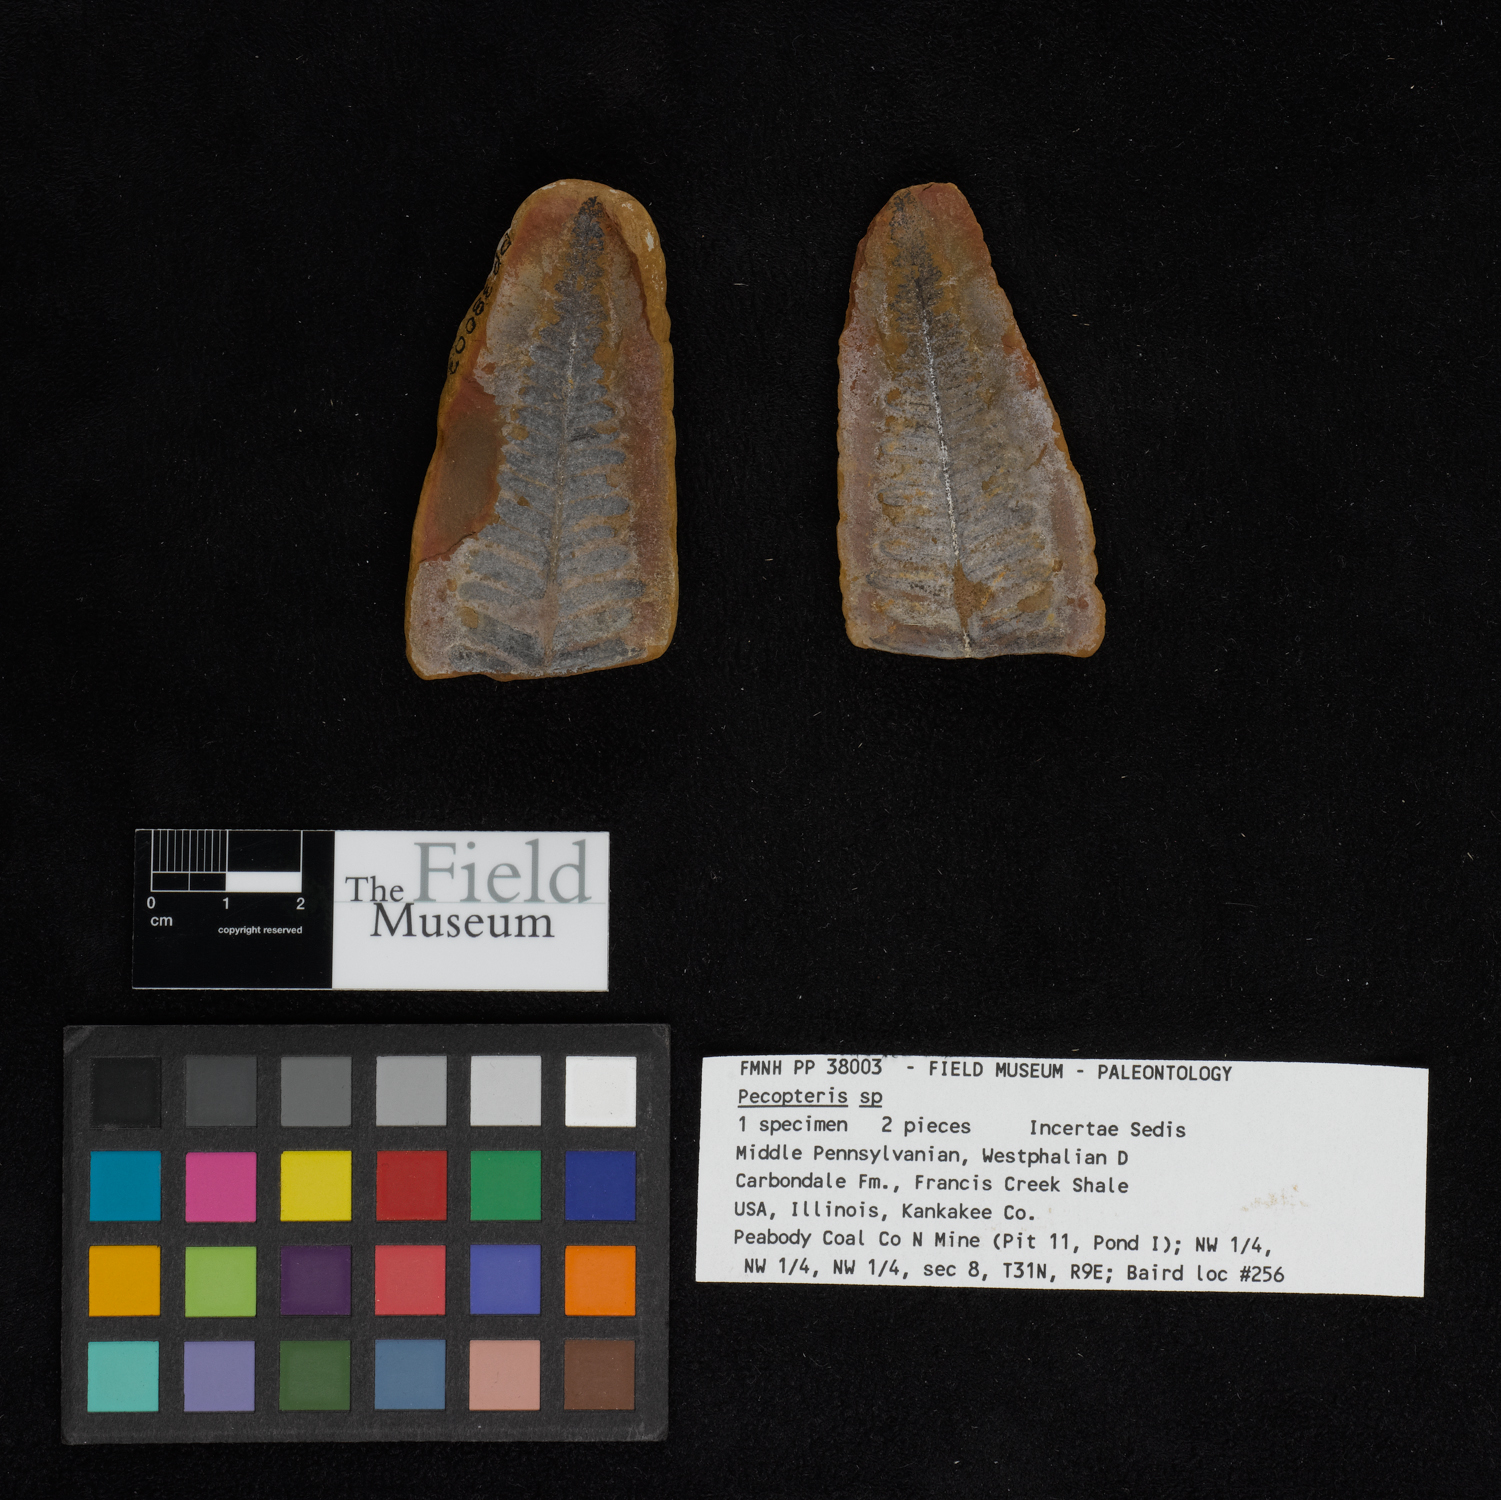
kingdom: Plantae
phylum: Tracheophyta
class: Polypodiopsida
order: Marattiales
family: Asterothecaceae
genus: Pecopteris
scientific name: Pecopteris
